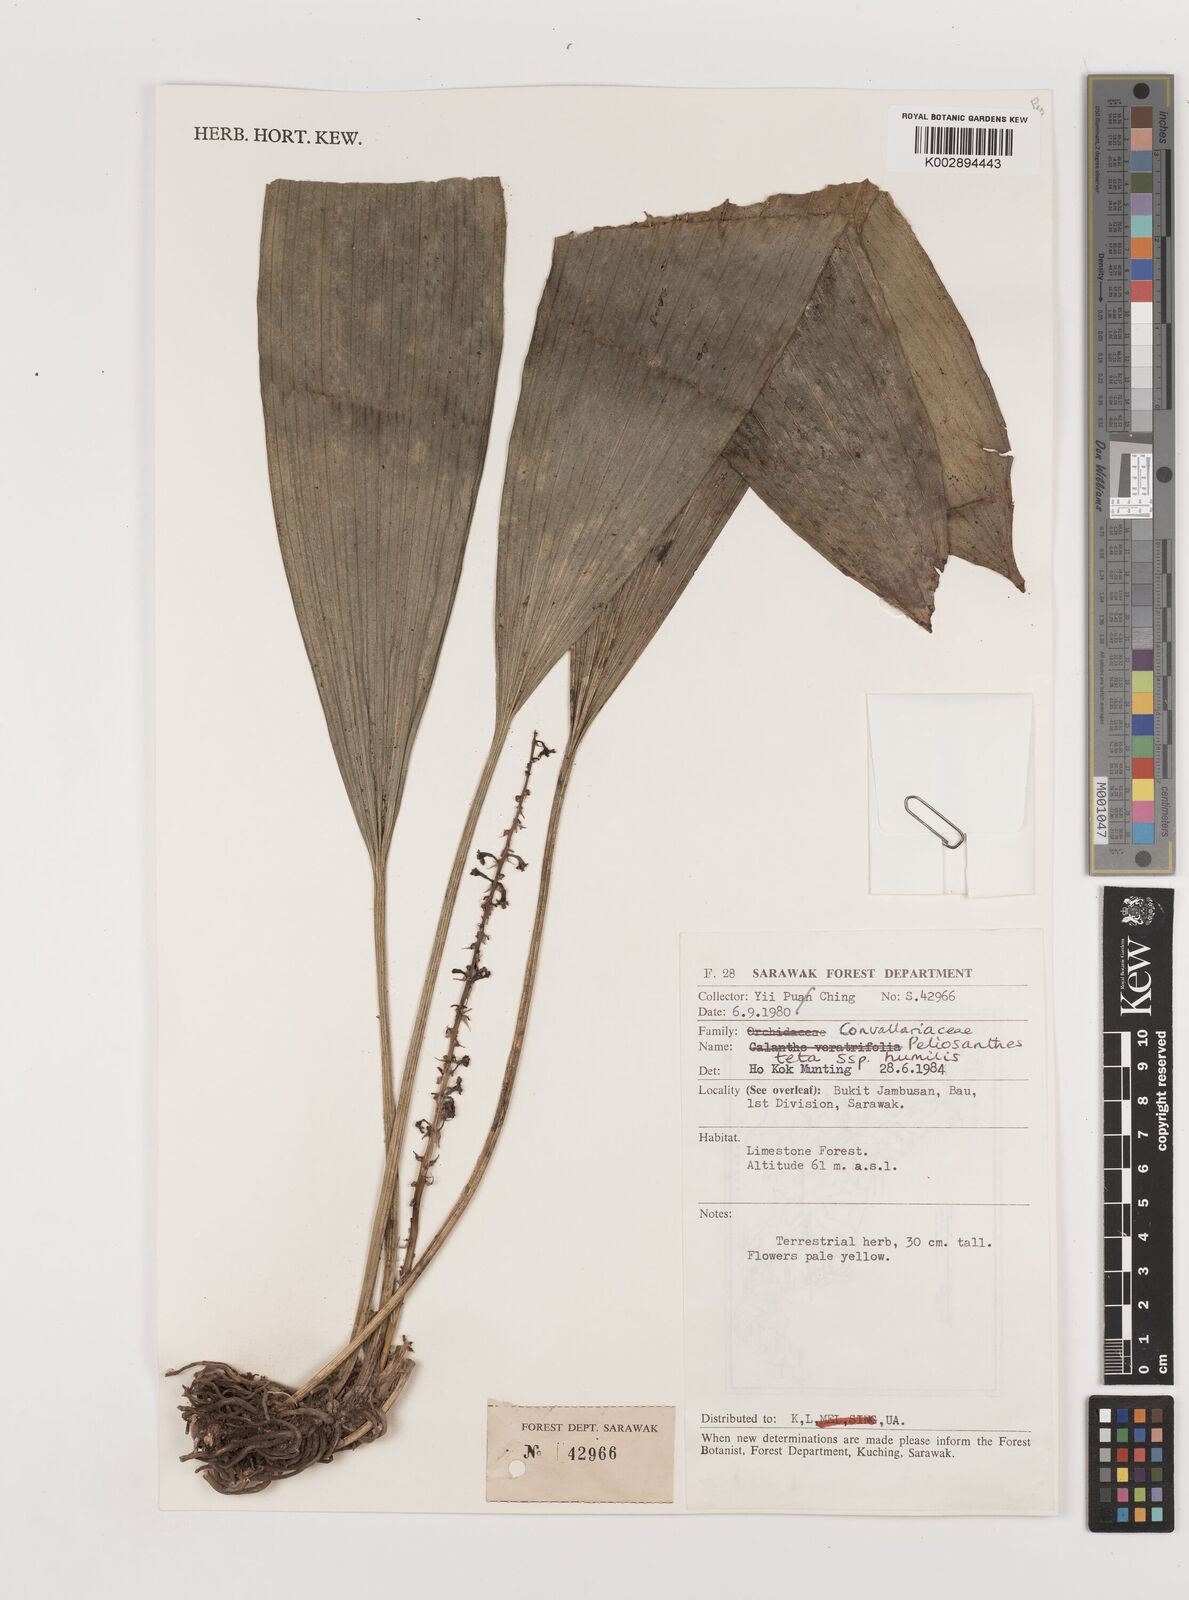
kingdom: Plantae
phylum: Tracheophyta
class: Liliopsida
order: Asparagales
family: Asparagaceae
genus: Peliosanthes
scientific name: Peliosanthes teta
